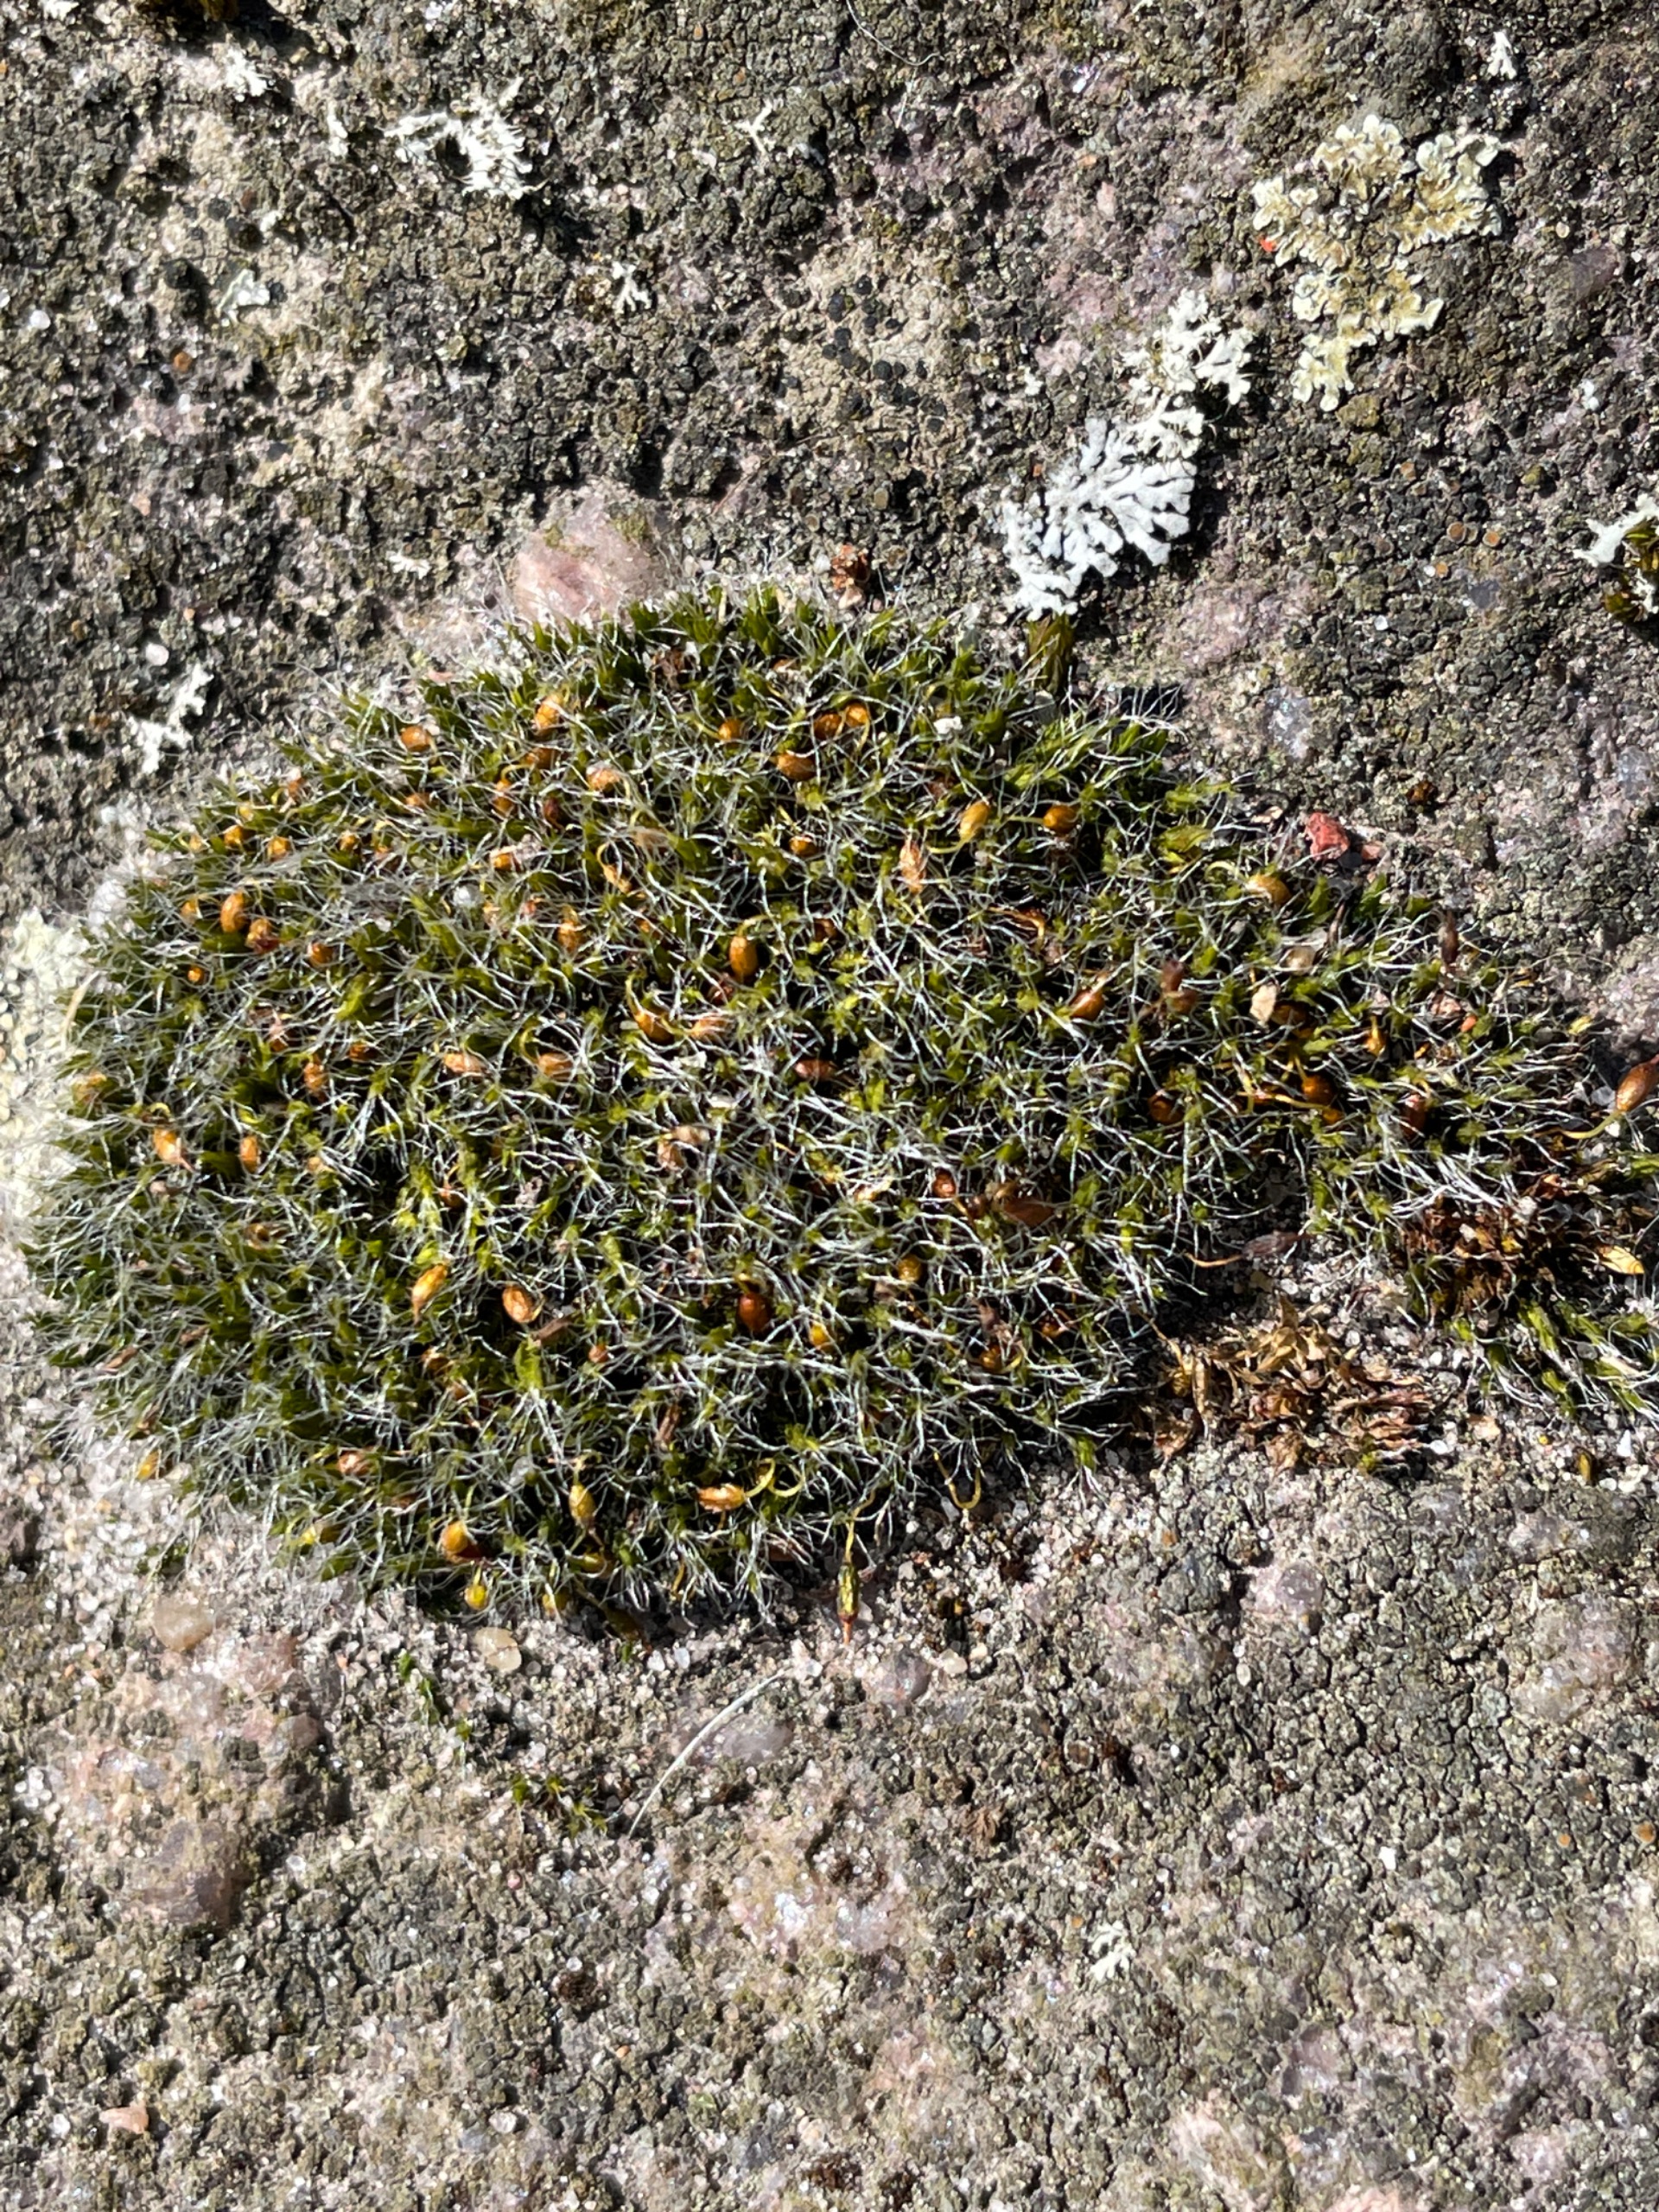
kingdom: Plantae
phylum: Bryophyta
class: Bryopsida
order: Grimmiales
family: Grimmiaceae
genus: Grimmia
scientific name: Grimmia pulvinata
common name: Pude-gråmos
